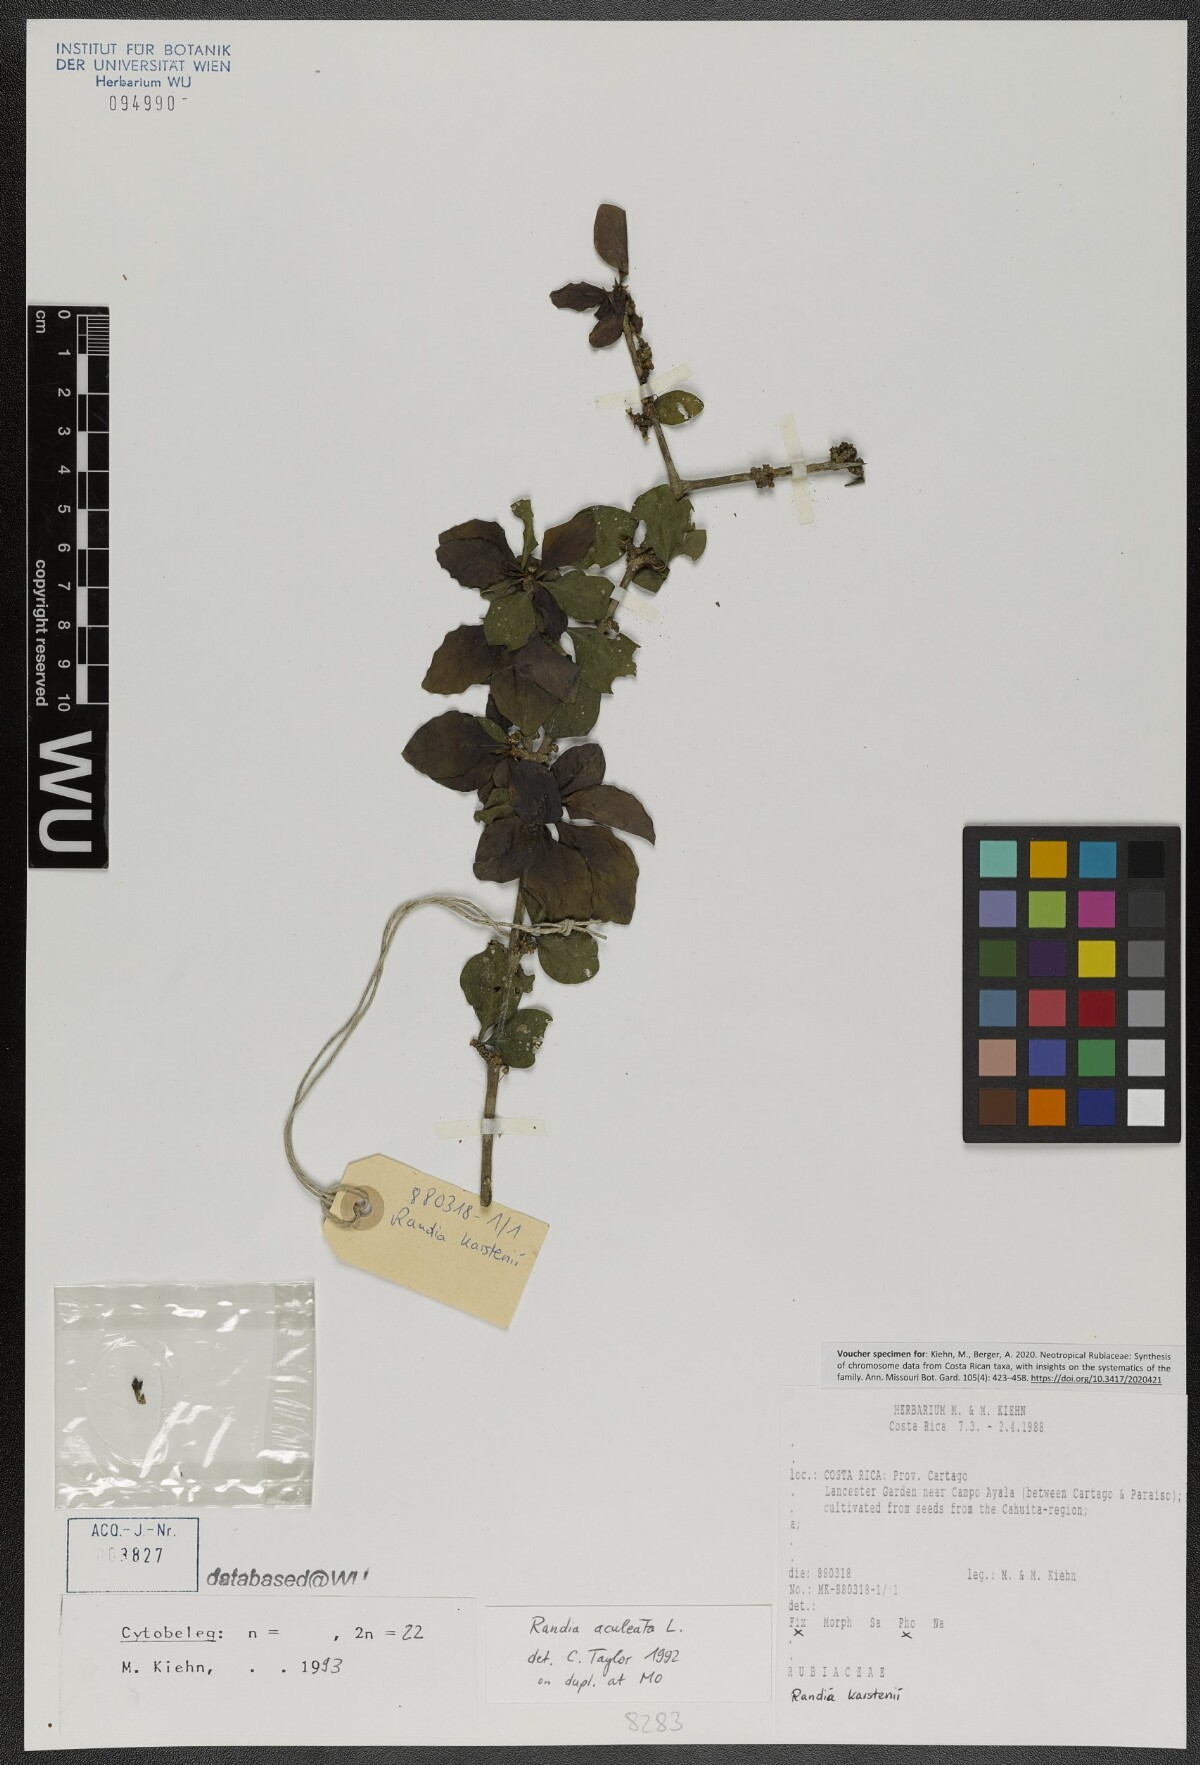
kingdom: Plantae
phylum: Tracheophyta
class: Magnoliopsida
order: Gentianales
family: Rubiaceae
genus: Randia
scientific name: Randia aculeata
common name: Inkberry
